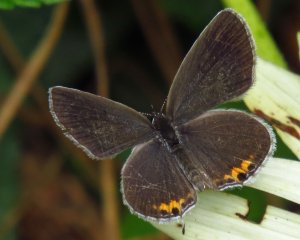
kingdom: Animalia
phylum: Arthropoda
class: Insecta
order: Lepidoptera
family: Lycaenidae
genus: Elkalyce
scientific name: Elkalyce comyntas
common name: Eastern Tailed-Blue
